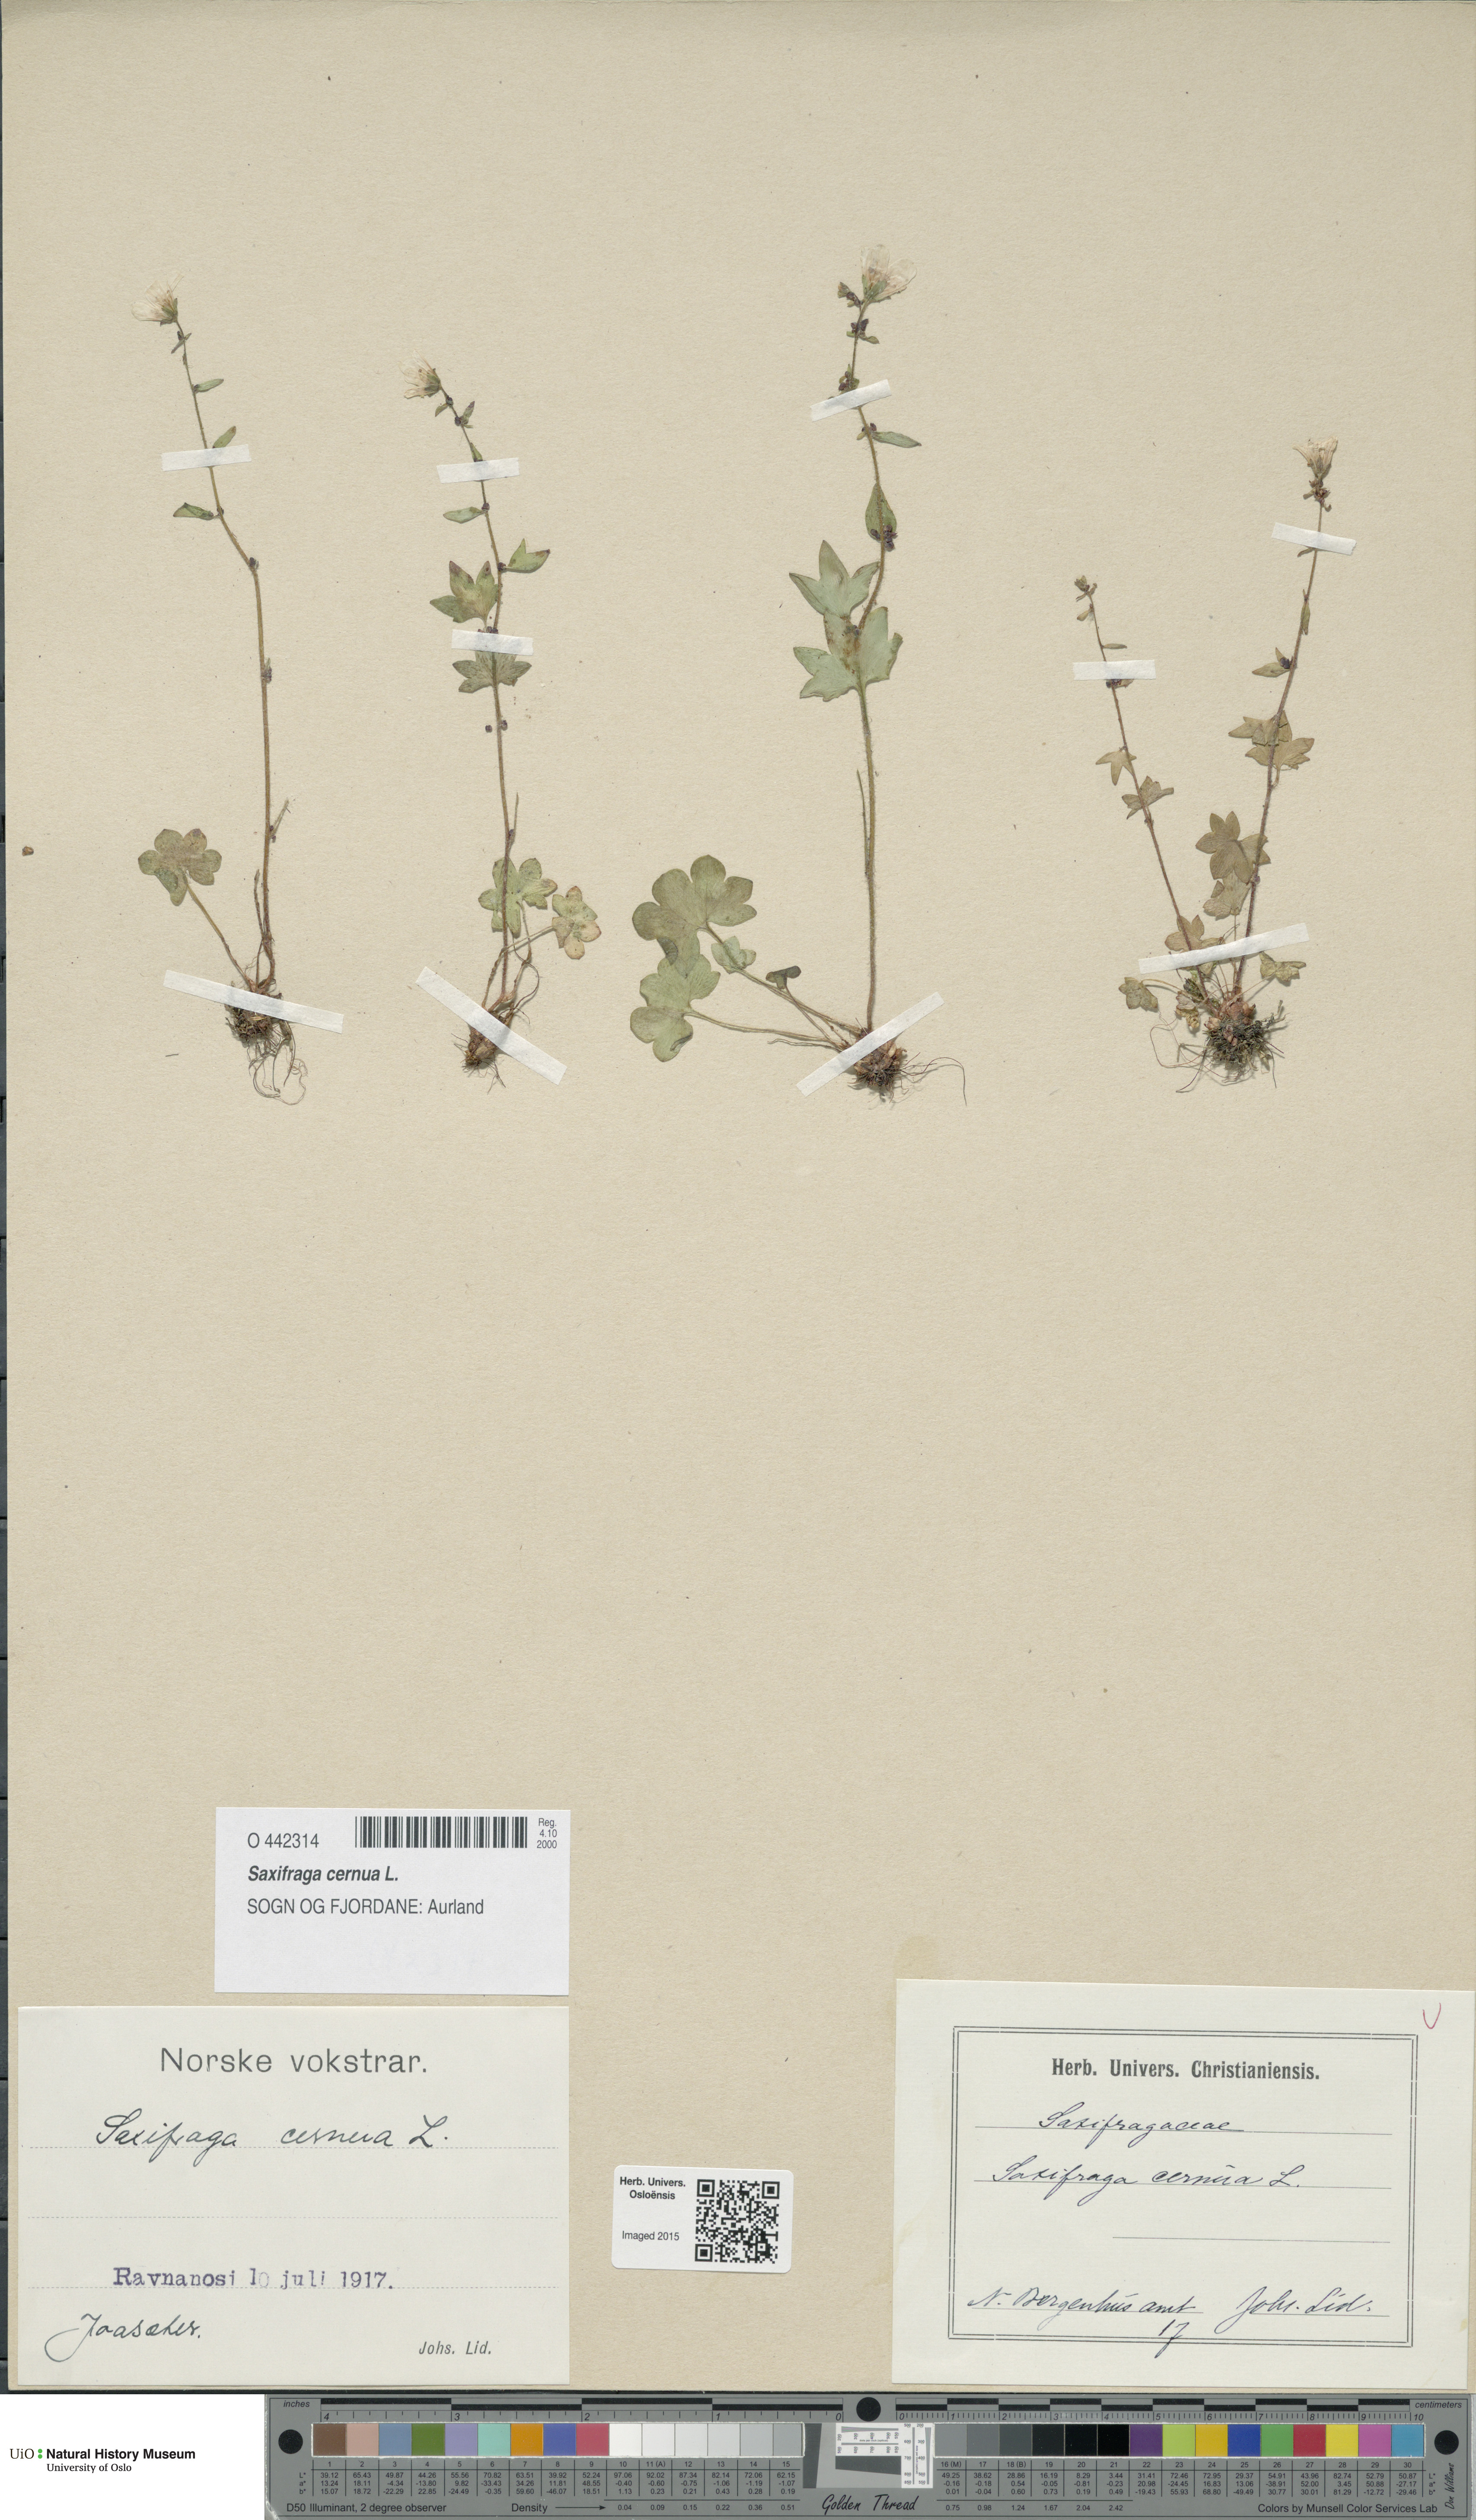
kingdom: Plantae
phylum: Tracheophyta
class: Magnoliopsida
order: Saxifragales
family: Saxifragaceae
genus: Saxifraga
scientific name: Saxifraga cernua
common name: Drooping saxifrage
